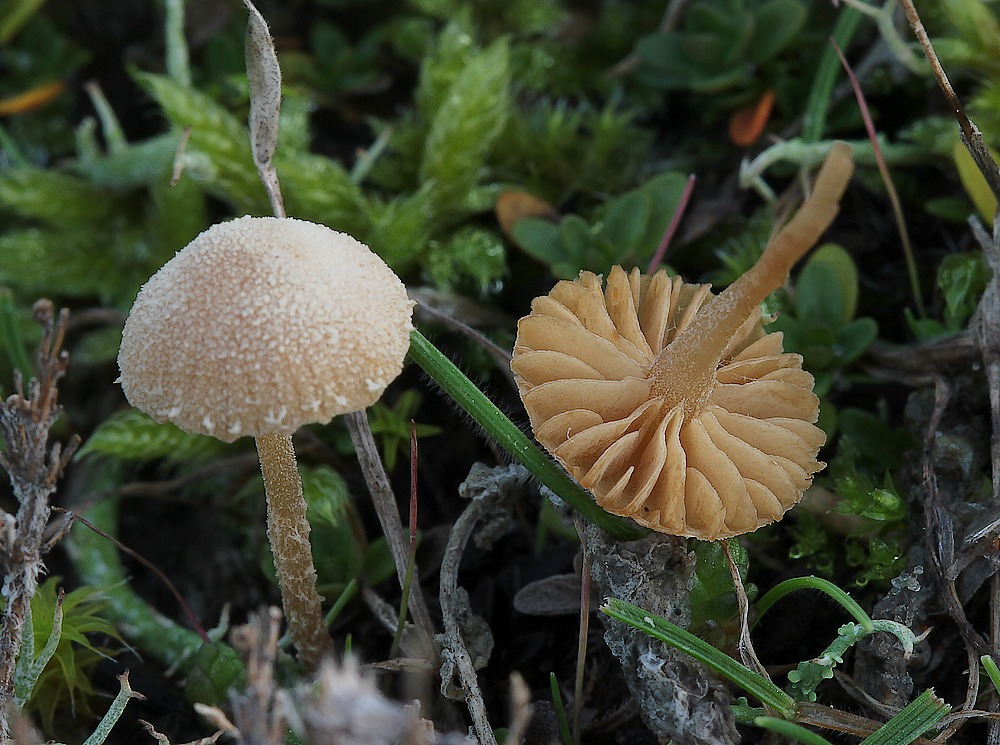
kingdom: Fungi
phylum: Basidiomycota
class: Agaricomycetes
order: Agaricales
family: Tubariaceae
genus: Flammulaster
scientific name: Flammulaster carpophilus
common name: bøge-grynskælhat
